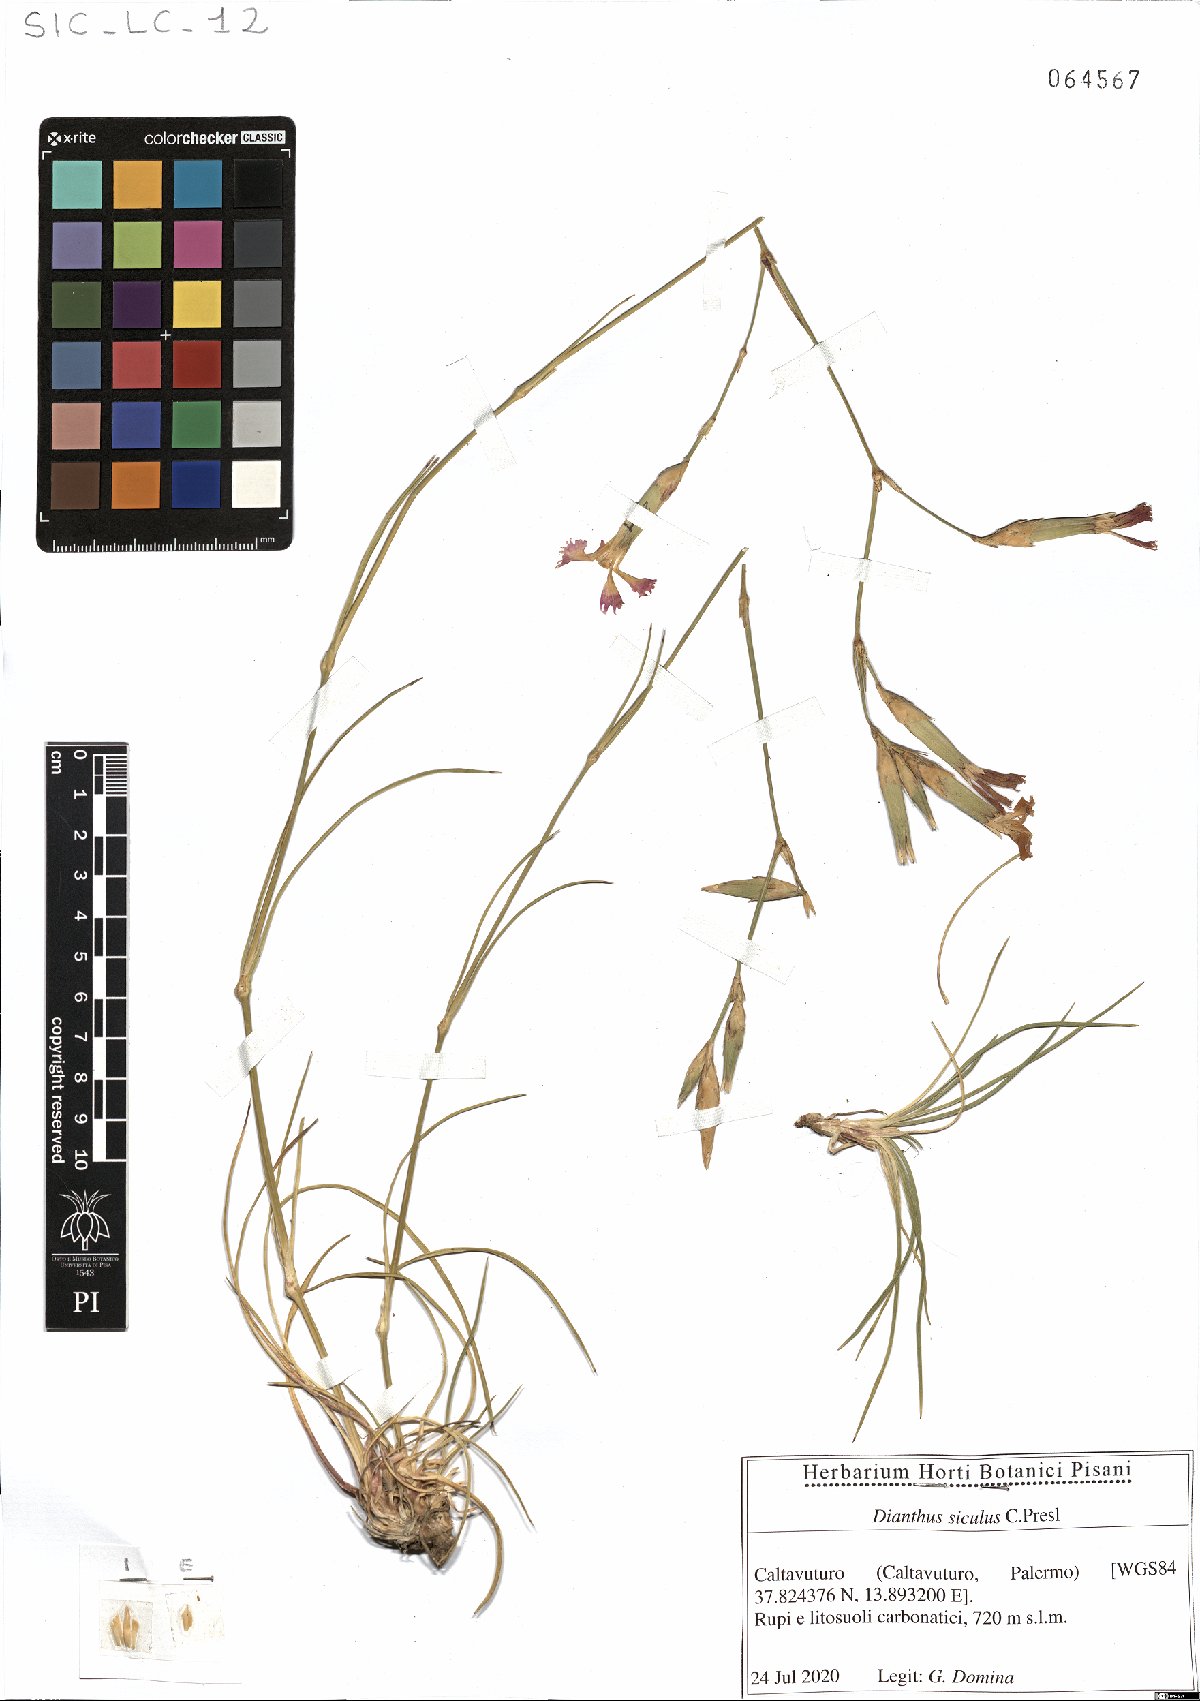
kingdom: Plantae
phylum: Tracheophyta
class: Magnoliopsida
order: Caryophyllales
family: Caryophyllaceae
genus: Dianthus
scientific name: Dianthus siculus
